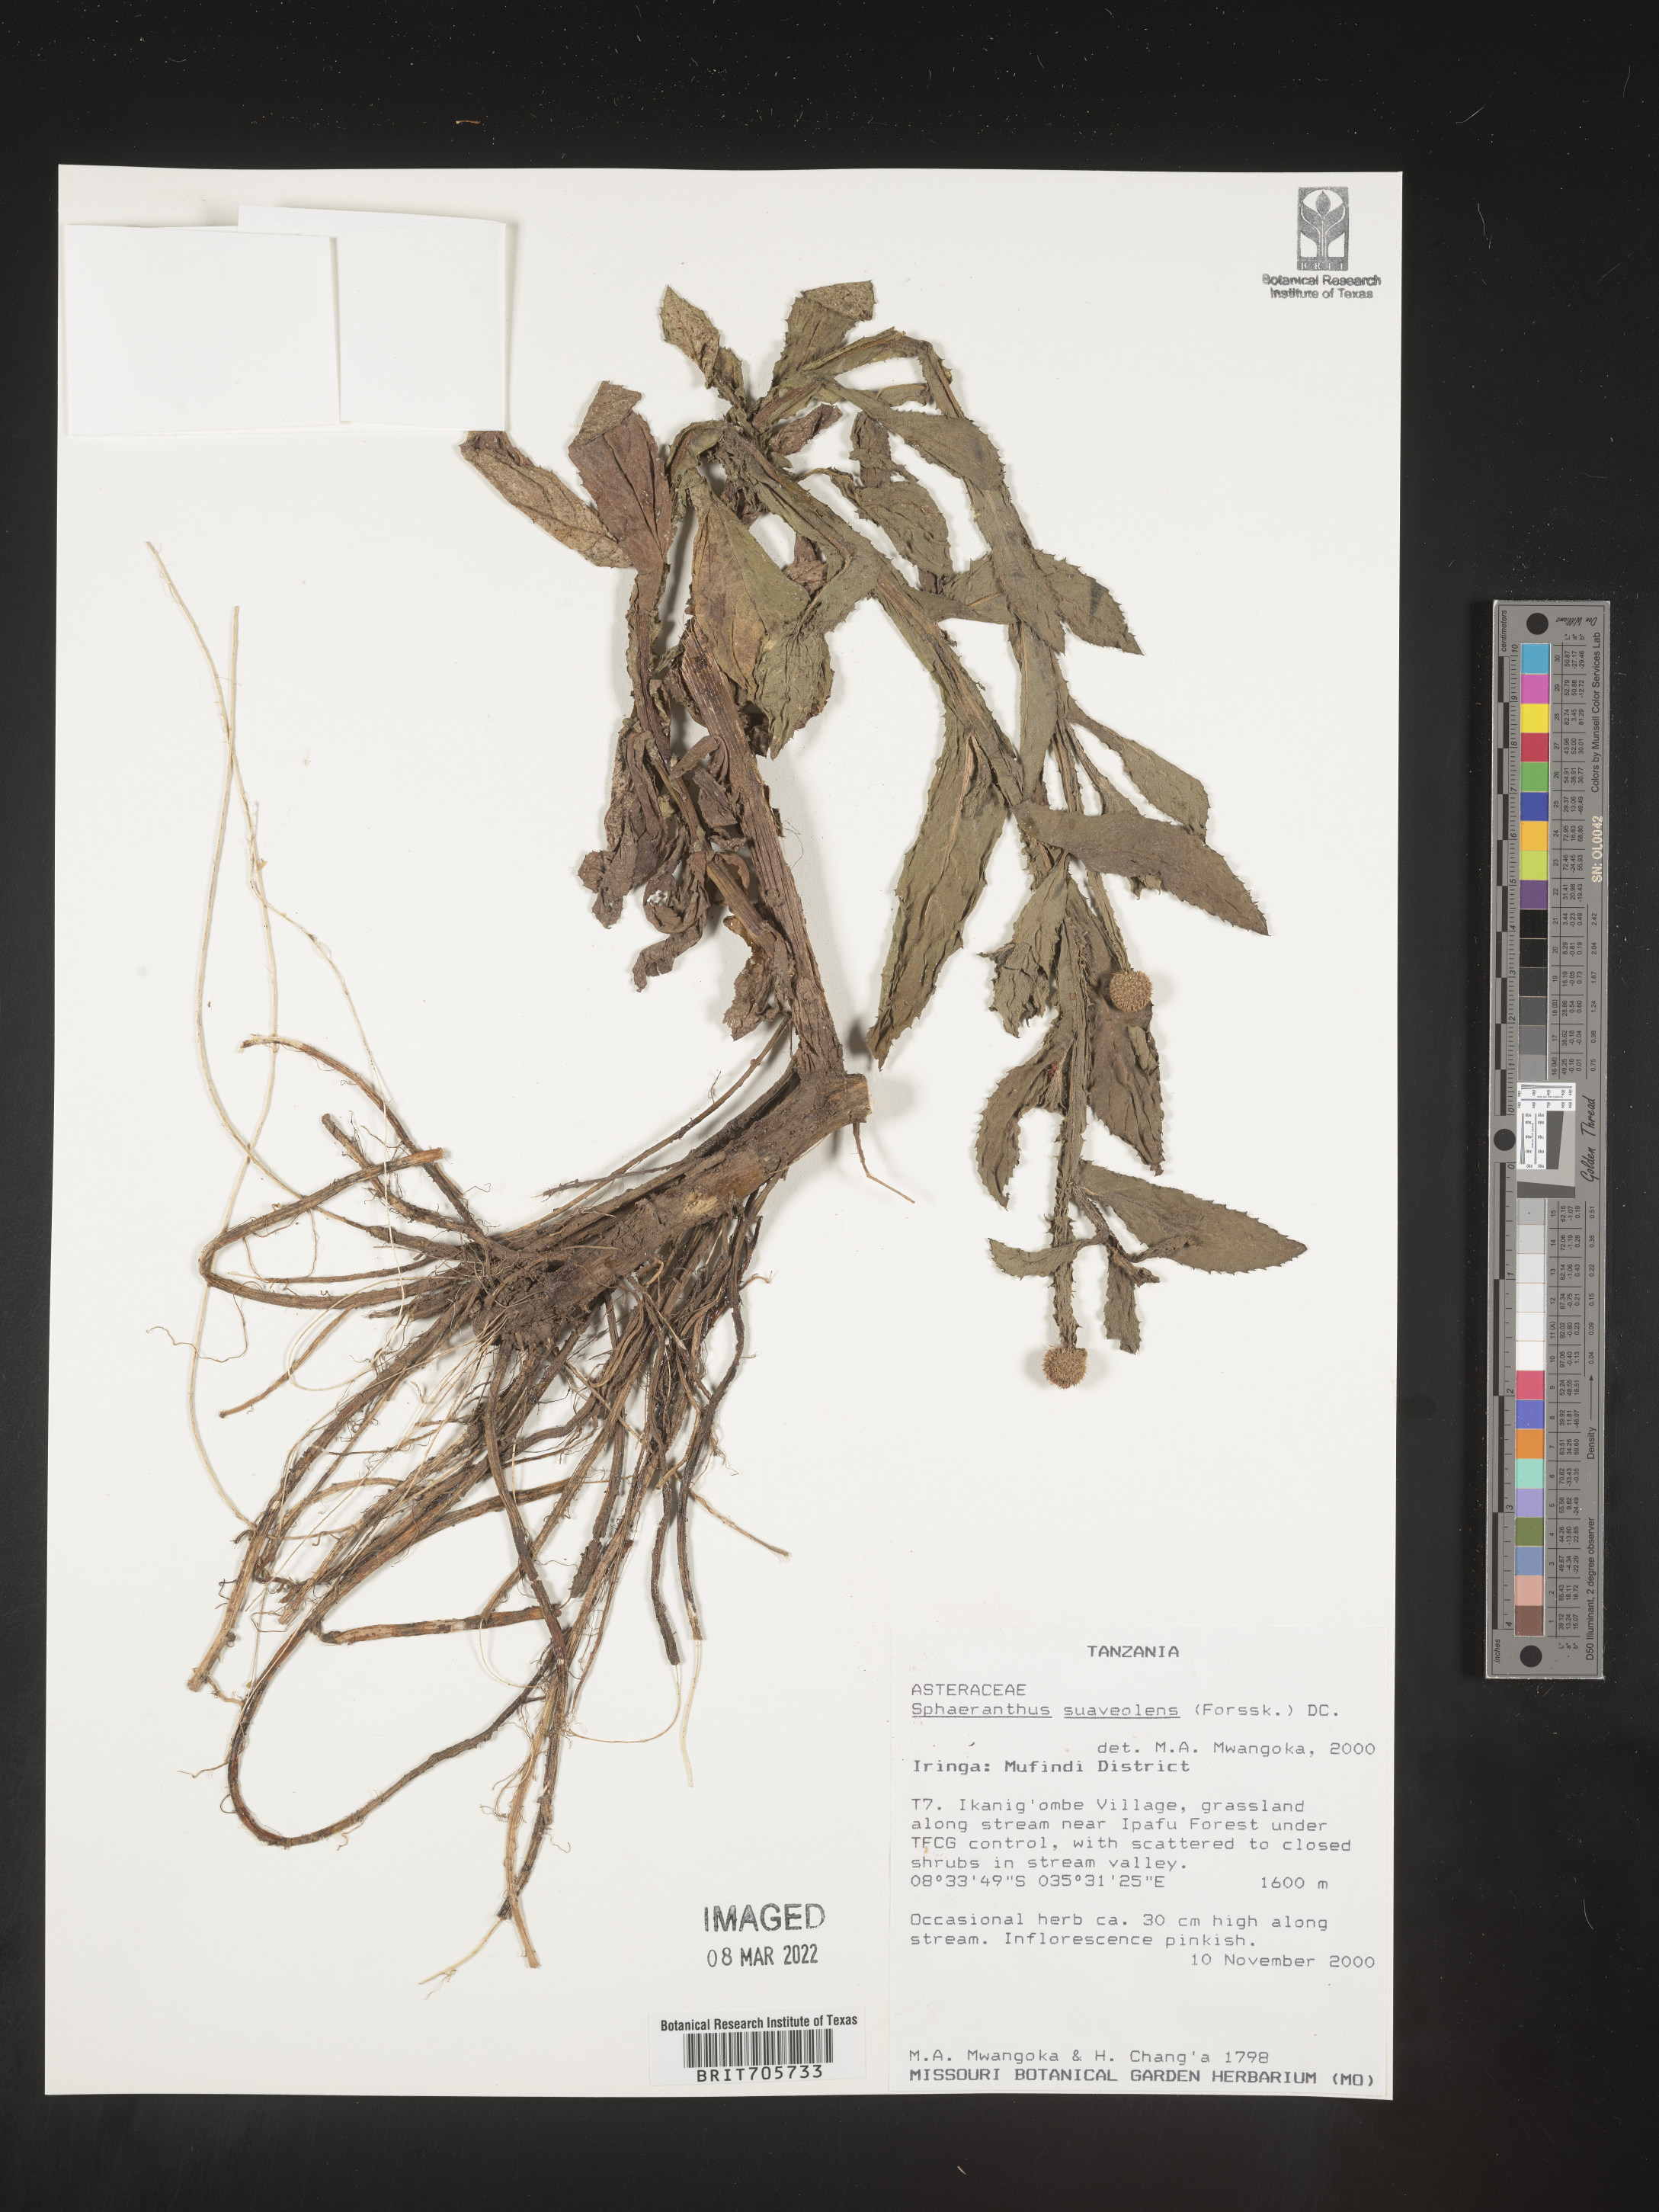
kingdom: Plantae
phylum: Tracheophyta
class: Magnoliopsida
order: Asterales
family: Asteraceae
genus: Sphaeranthus
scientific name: Sphaeranthus
